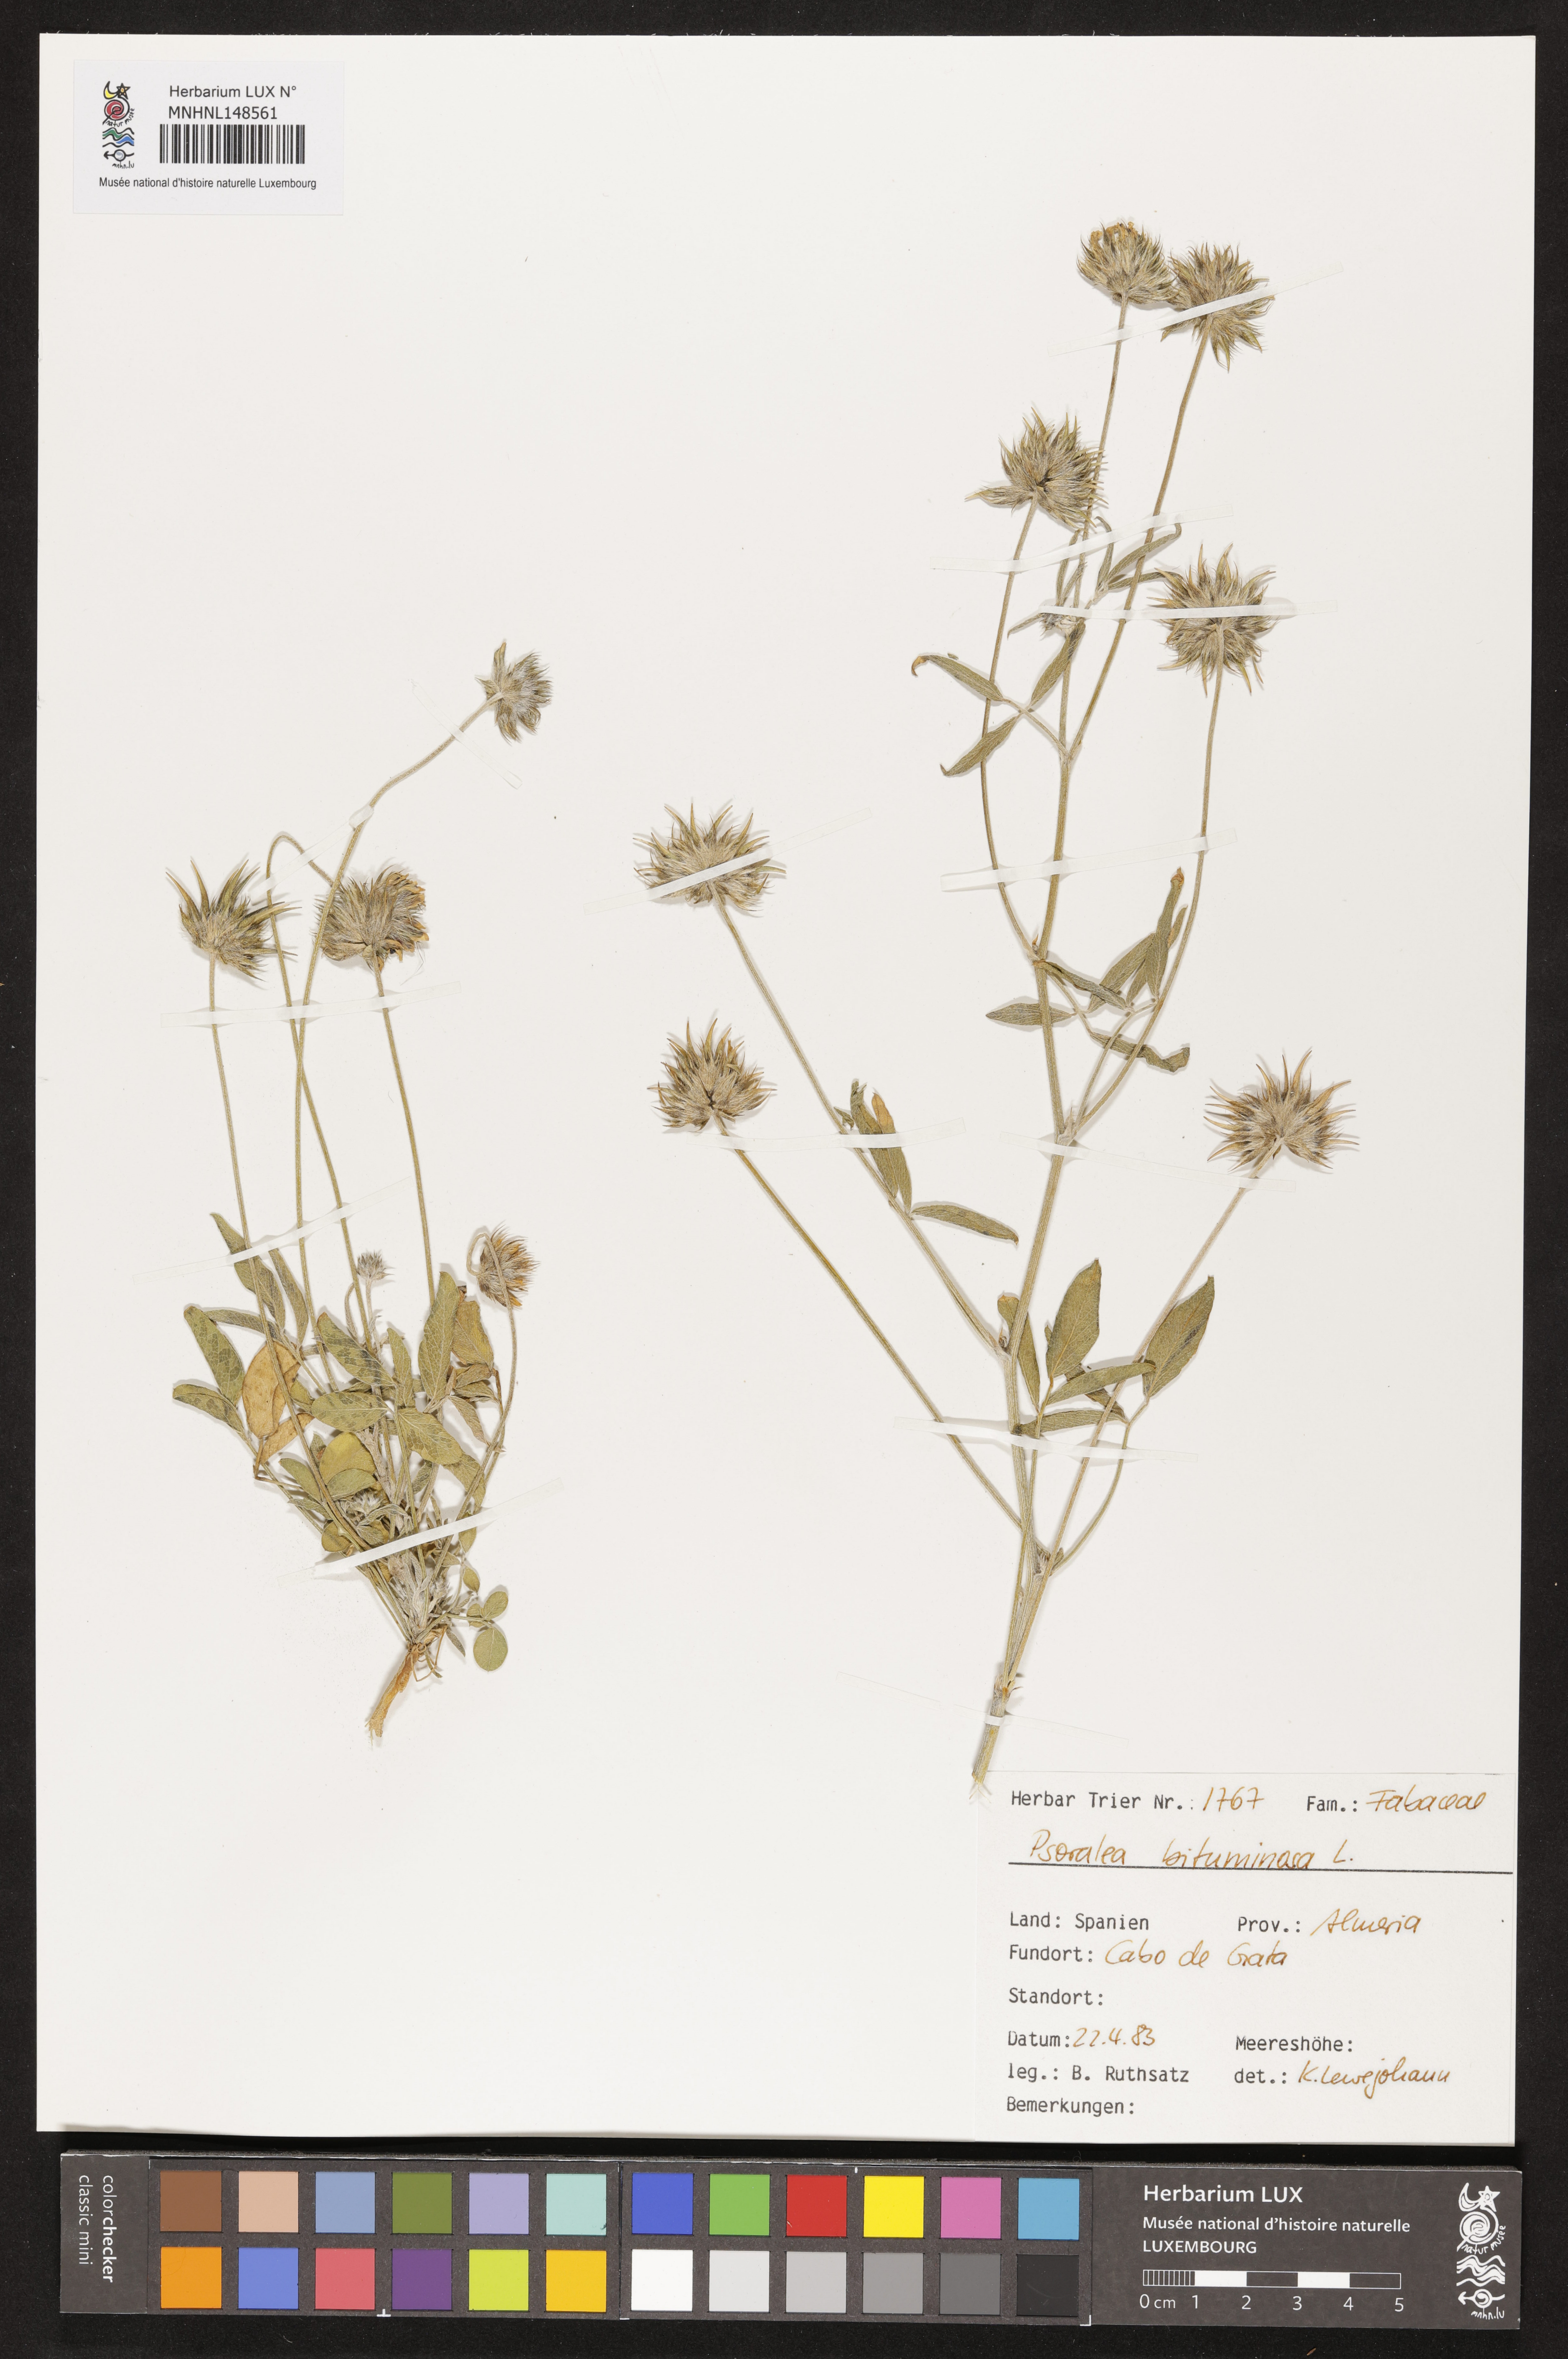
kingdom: Plantae
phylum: Tracheophyta
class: Magnoliopsida
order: Fabales
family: Fabaceae
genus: Bituminaria
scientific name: Bituminaria bituminosa
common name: Arabian pea
